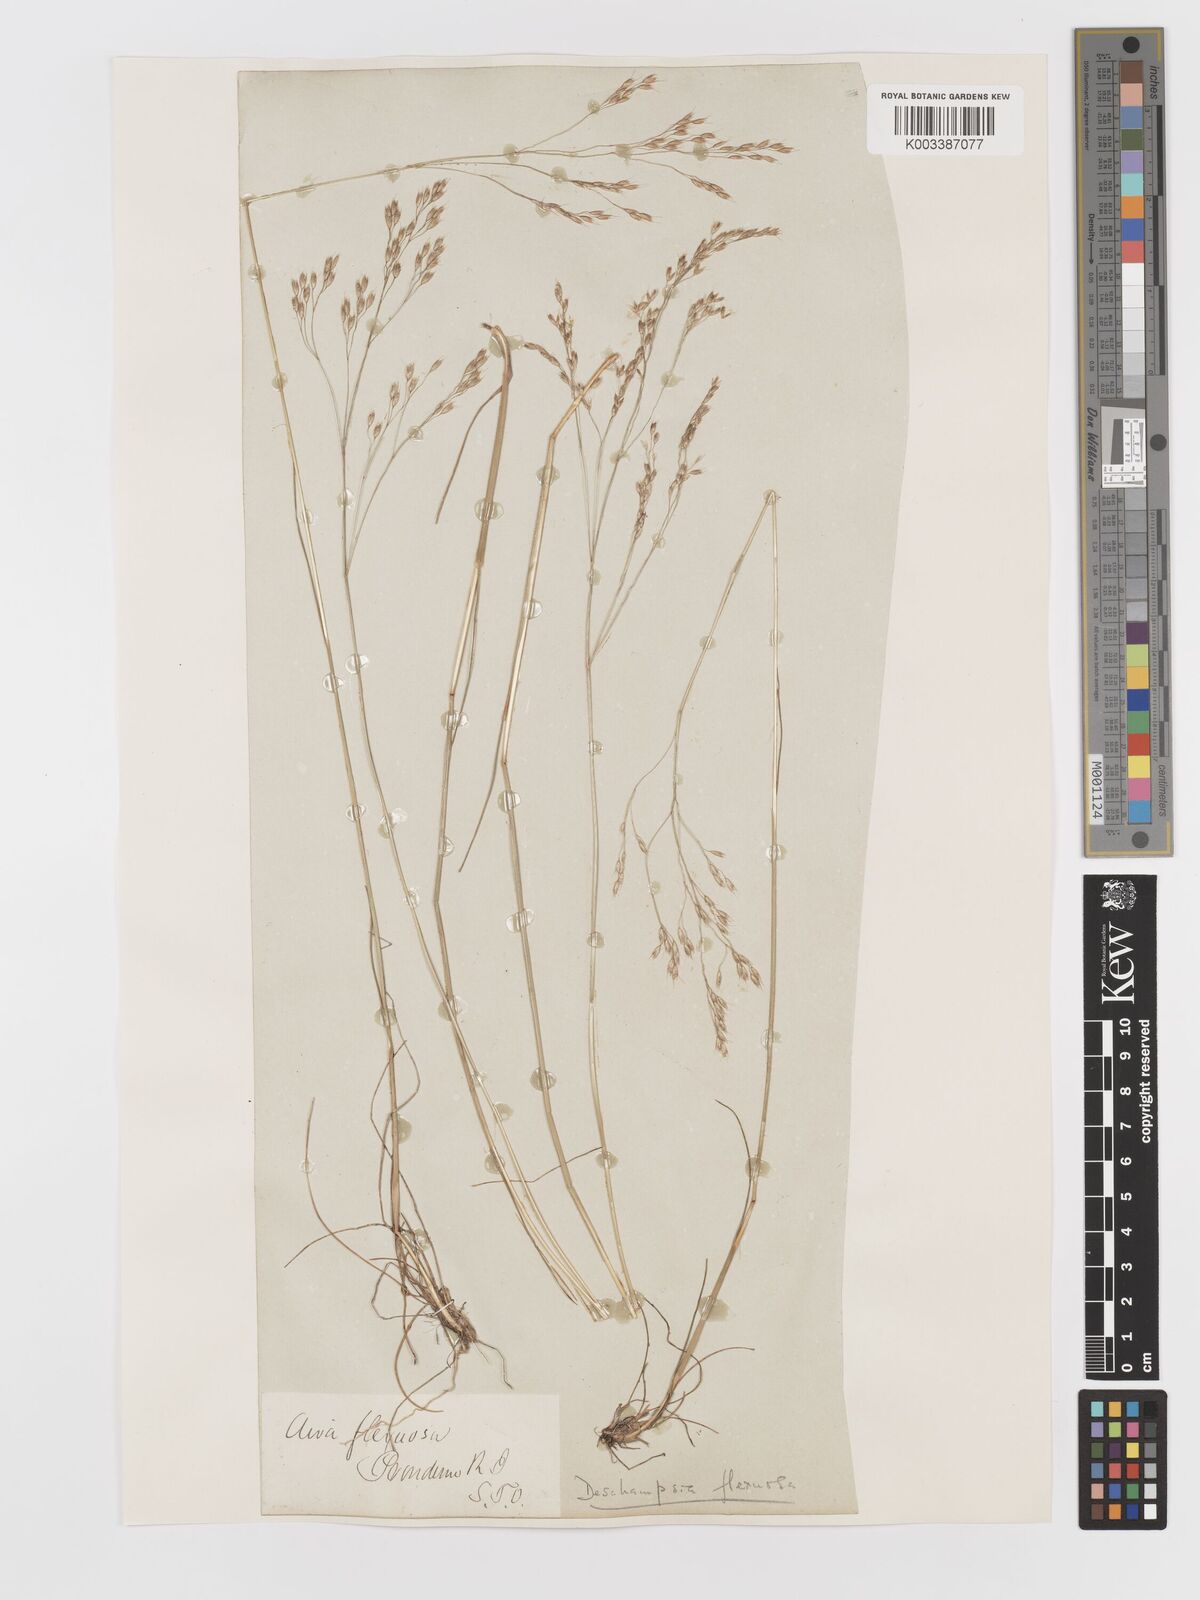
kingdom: Plantae
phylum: Tracheophyta
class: Liliopsida
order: Poales
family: Poaceae
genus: Avenella
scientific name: Avenella flexuosa
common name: Wavy hairgrass
